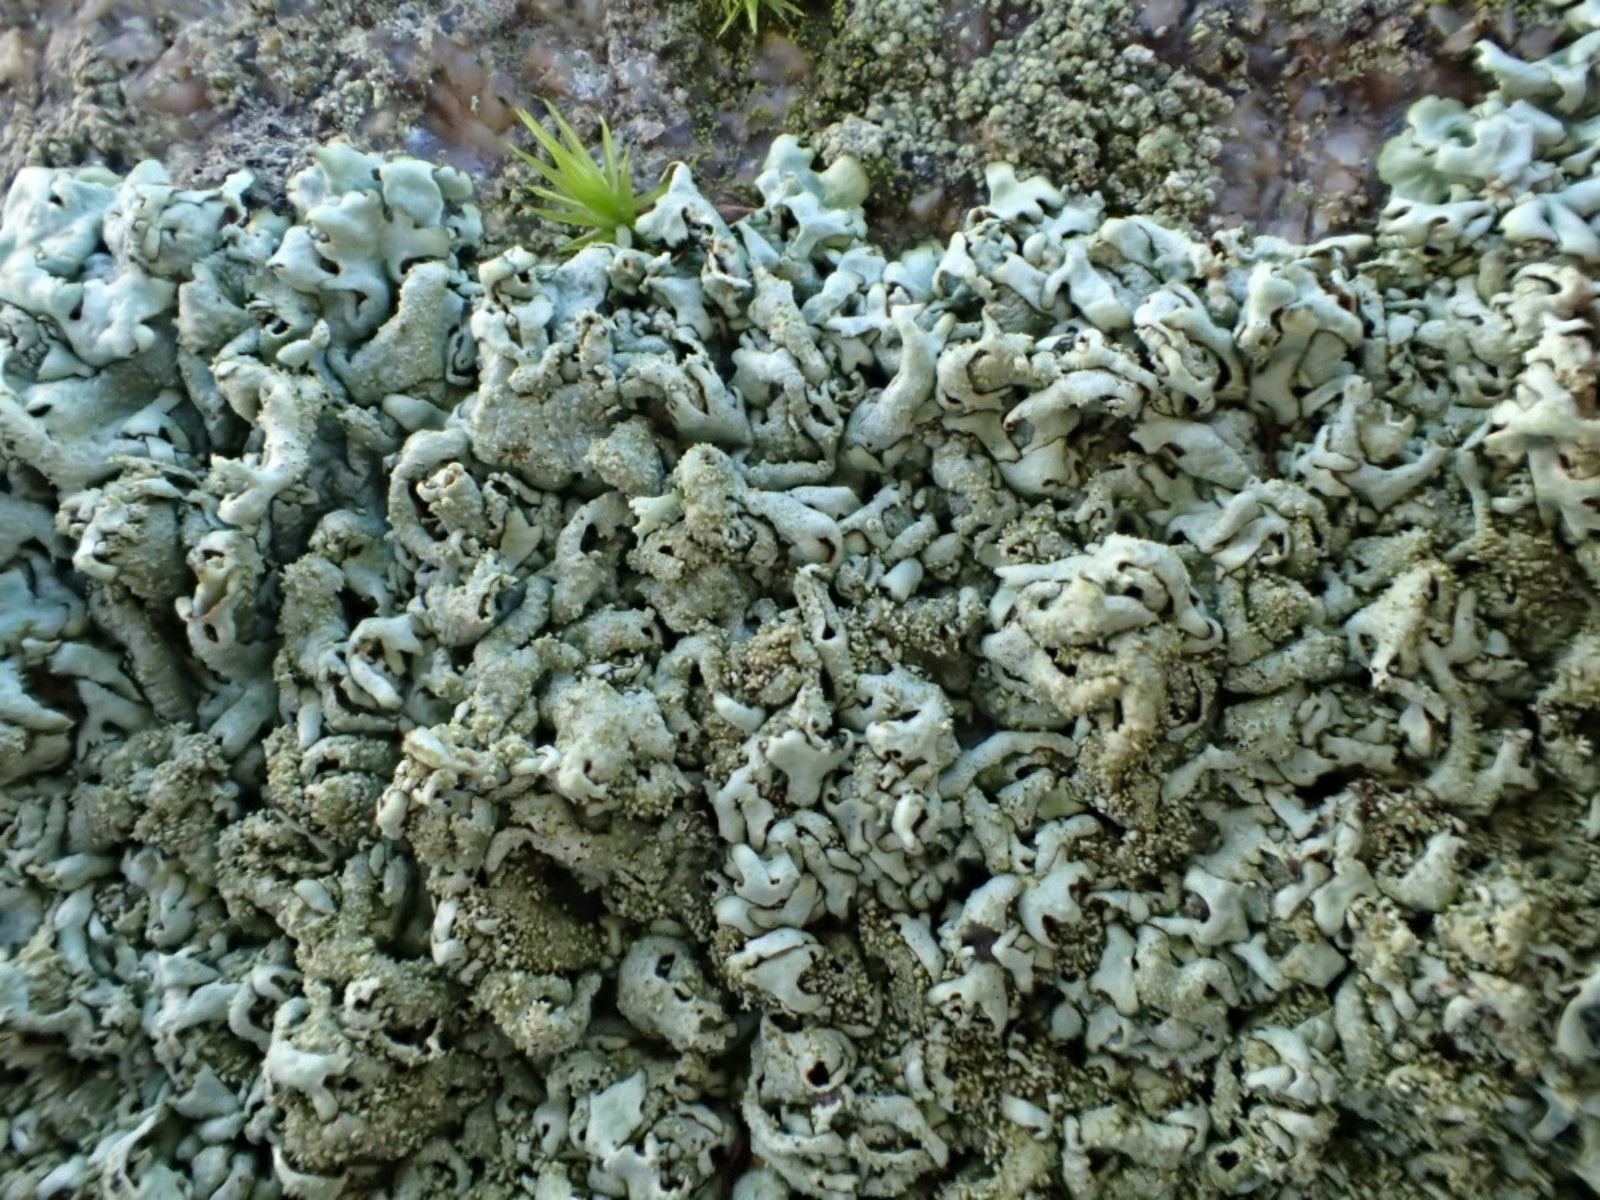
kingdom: Fungi
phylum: Ascomycota
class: Lecanoromycetes
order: Lecanorales
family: Parmeliaceae
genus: Xanthoparmelia
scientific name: Xanthoparmelia conspersa
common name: messing-skållav
